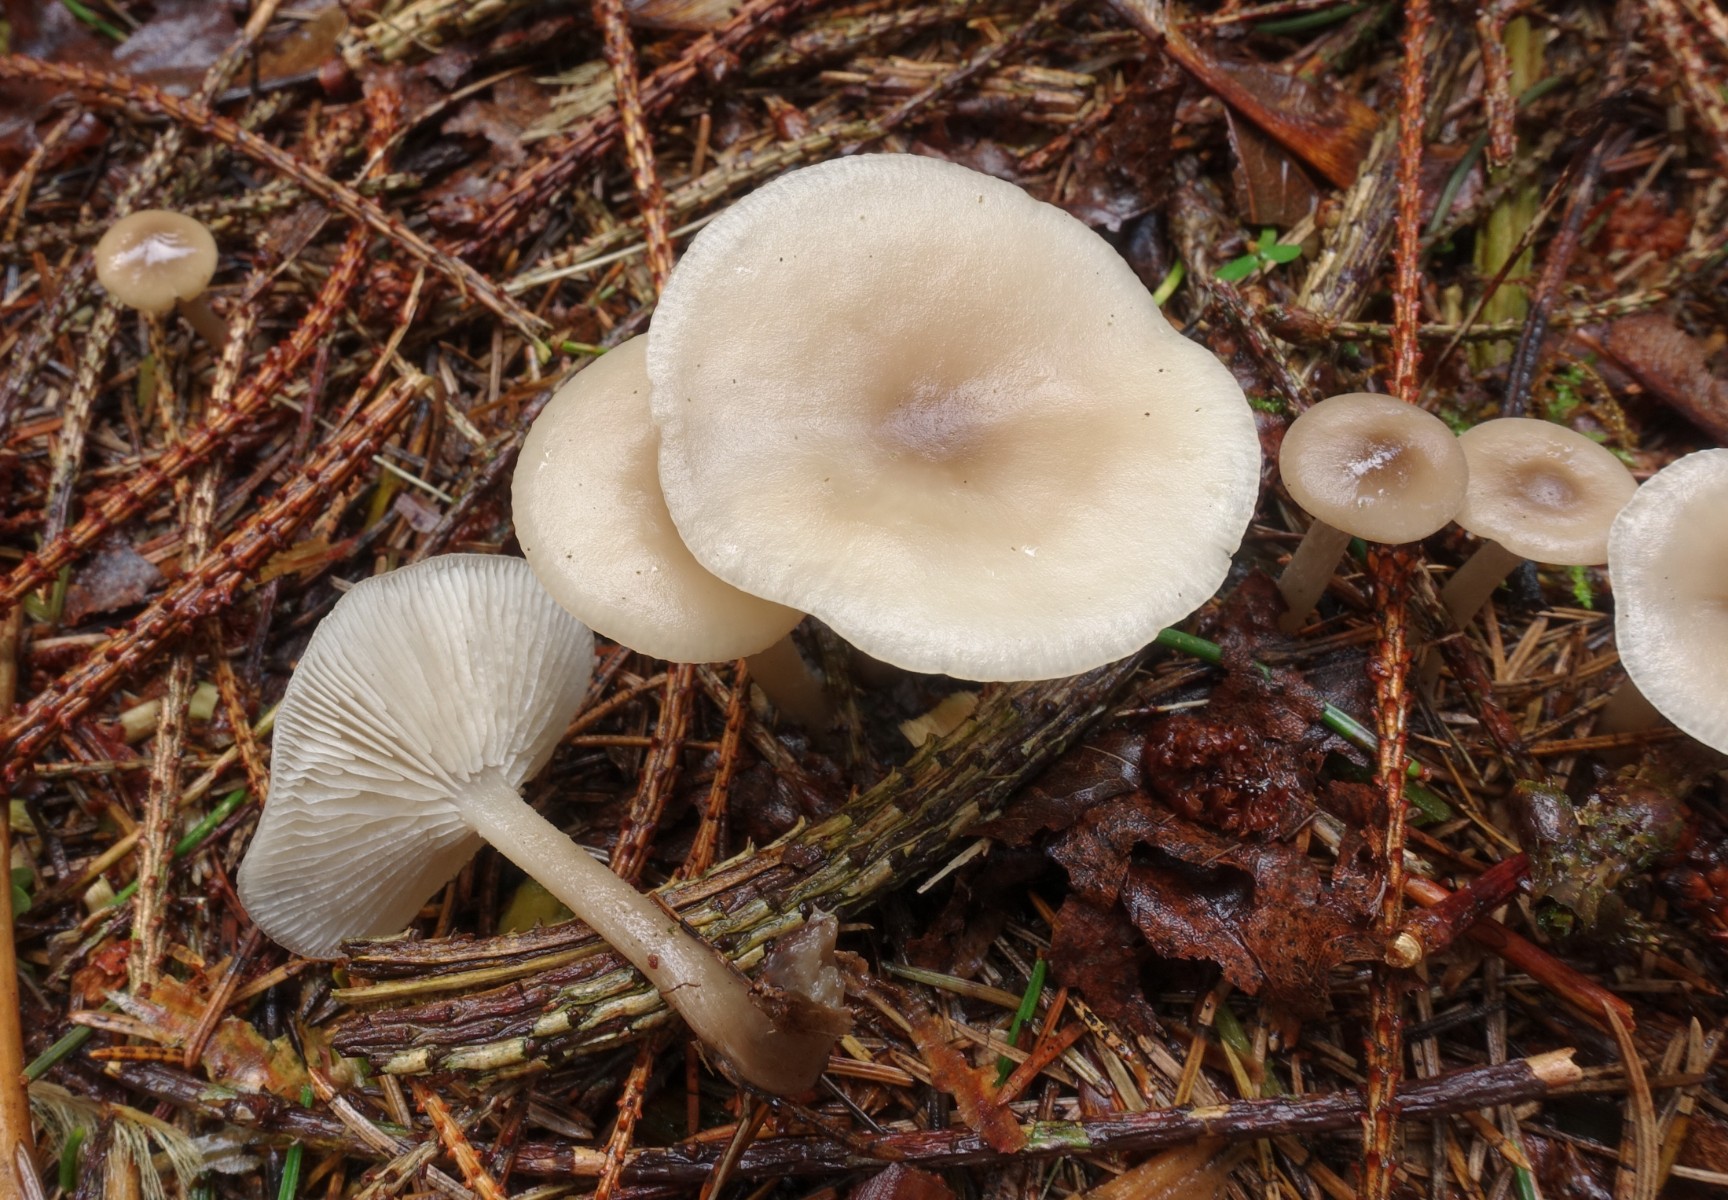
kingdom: Fungi
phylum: Basidiomycota
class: Agaricomycetes
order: Agaricales
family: Tricholomataceae
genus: Clitocybe
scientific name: Clitocybe metachroa
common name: grå tragthat
